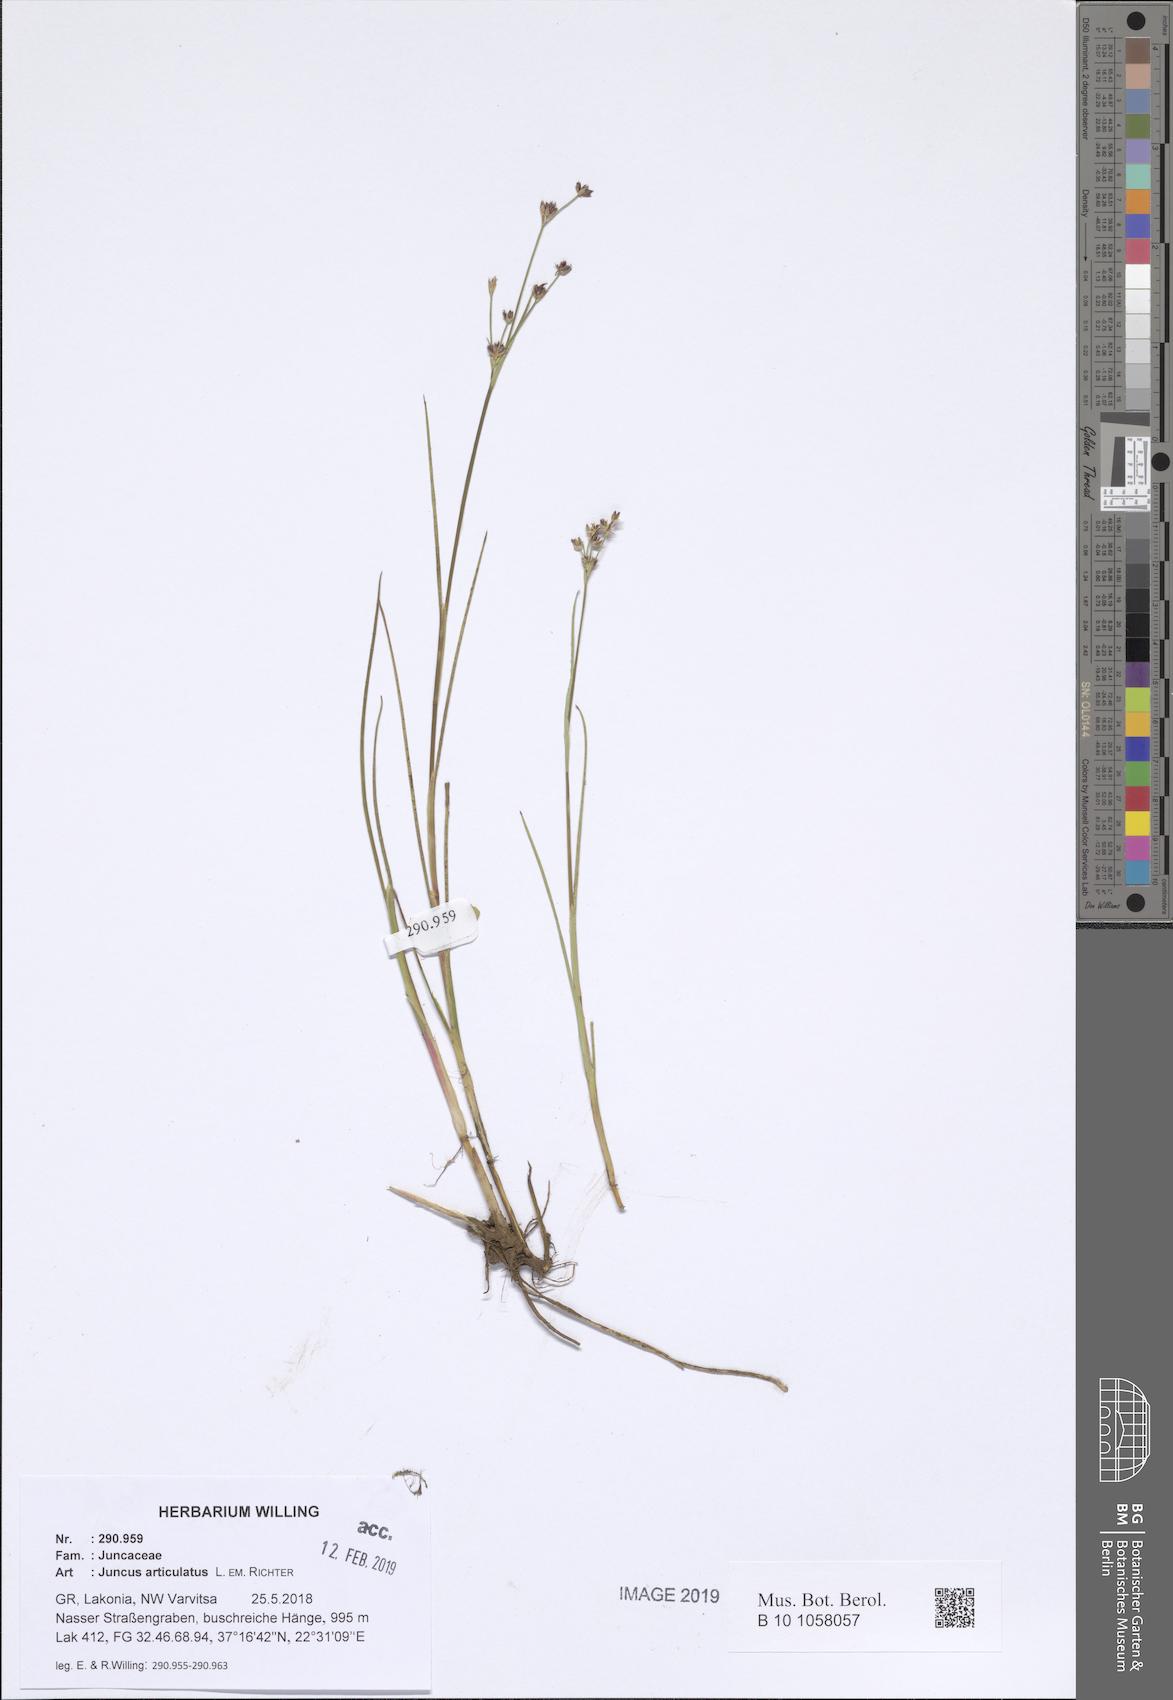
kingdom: Plantae
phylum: Tracheophyta
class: Liliopsida
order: Poales
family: Juncaceae
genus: Juncus
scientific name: Juncus articulatus
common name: Jointed rush
